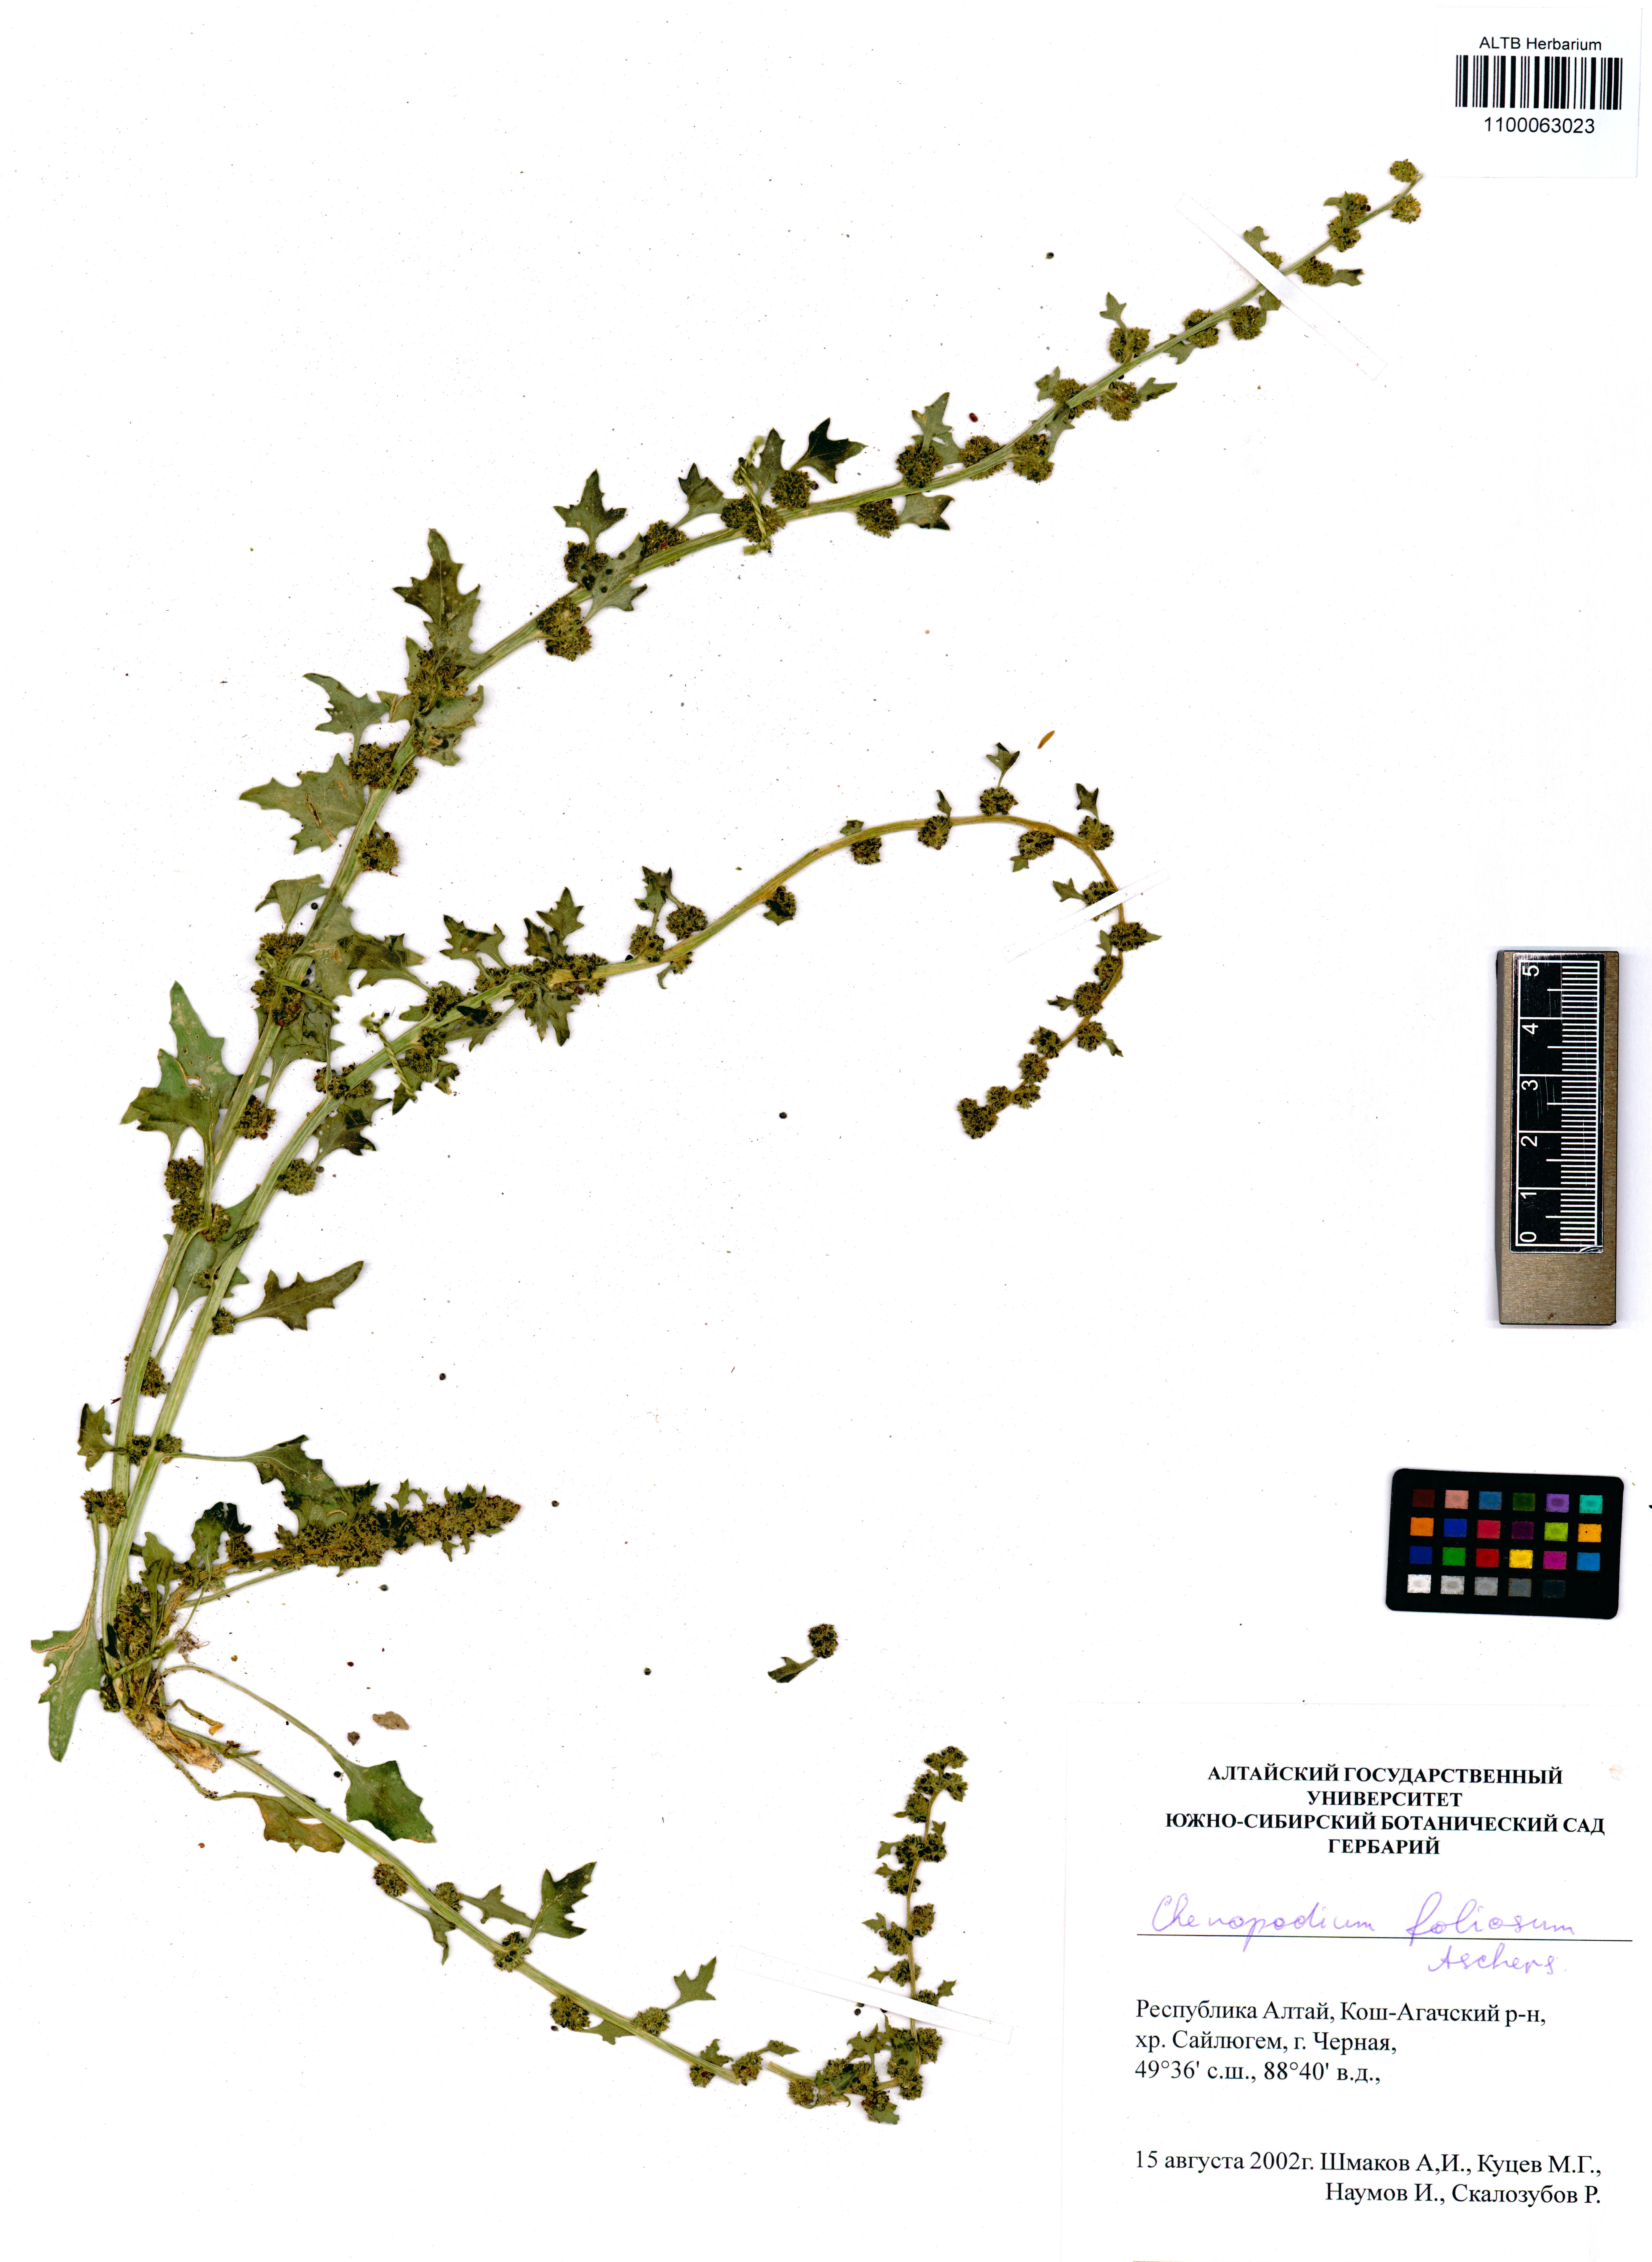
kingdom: Plantae
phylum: Tracheophyta
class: Magnoliopsida
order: Caryophyllales
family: Amaranthaceae
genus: Blitum
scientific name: Blitum virgatum
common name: Strawberry goosefoot
